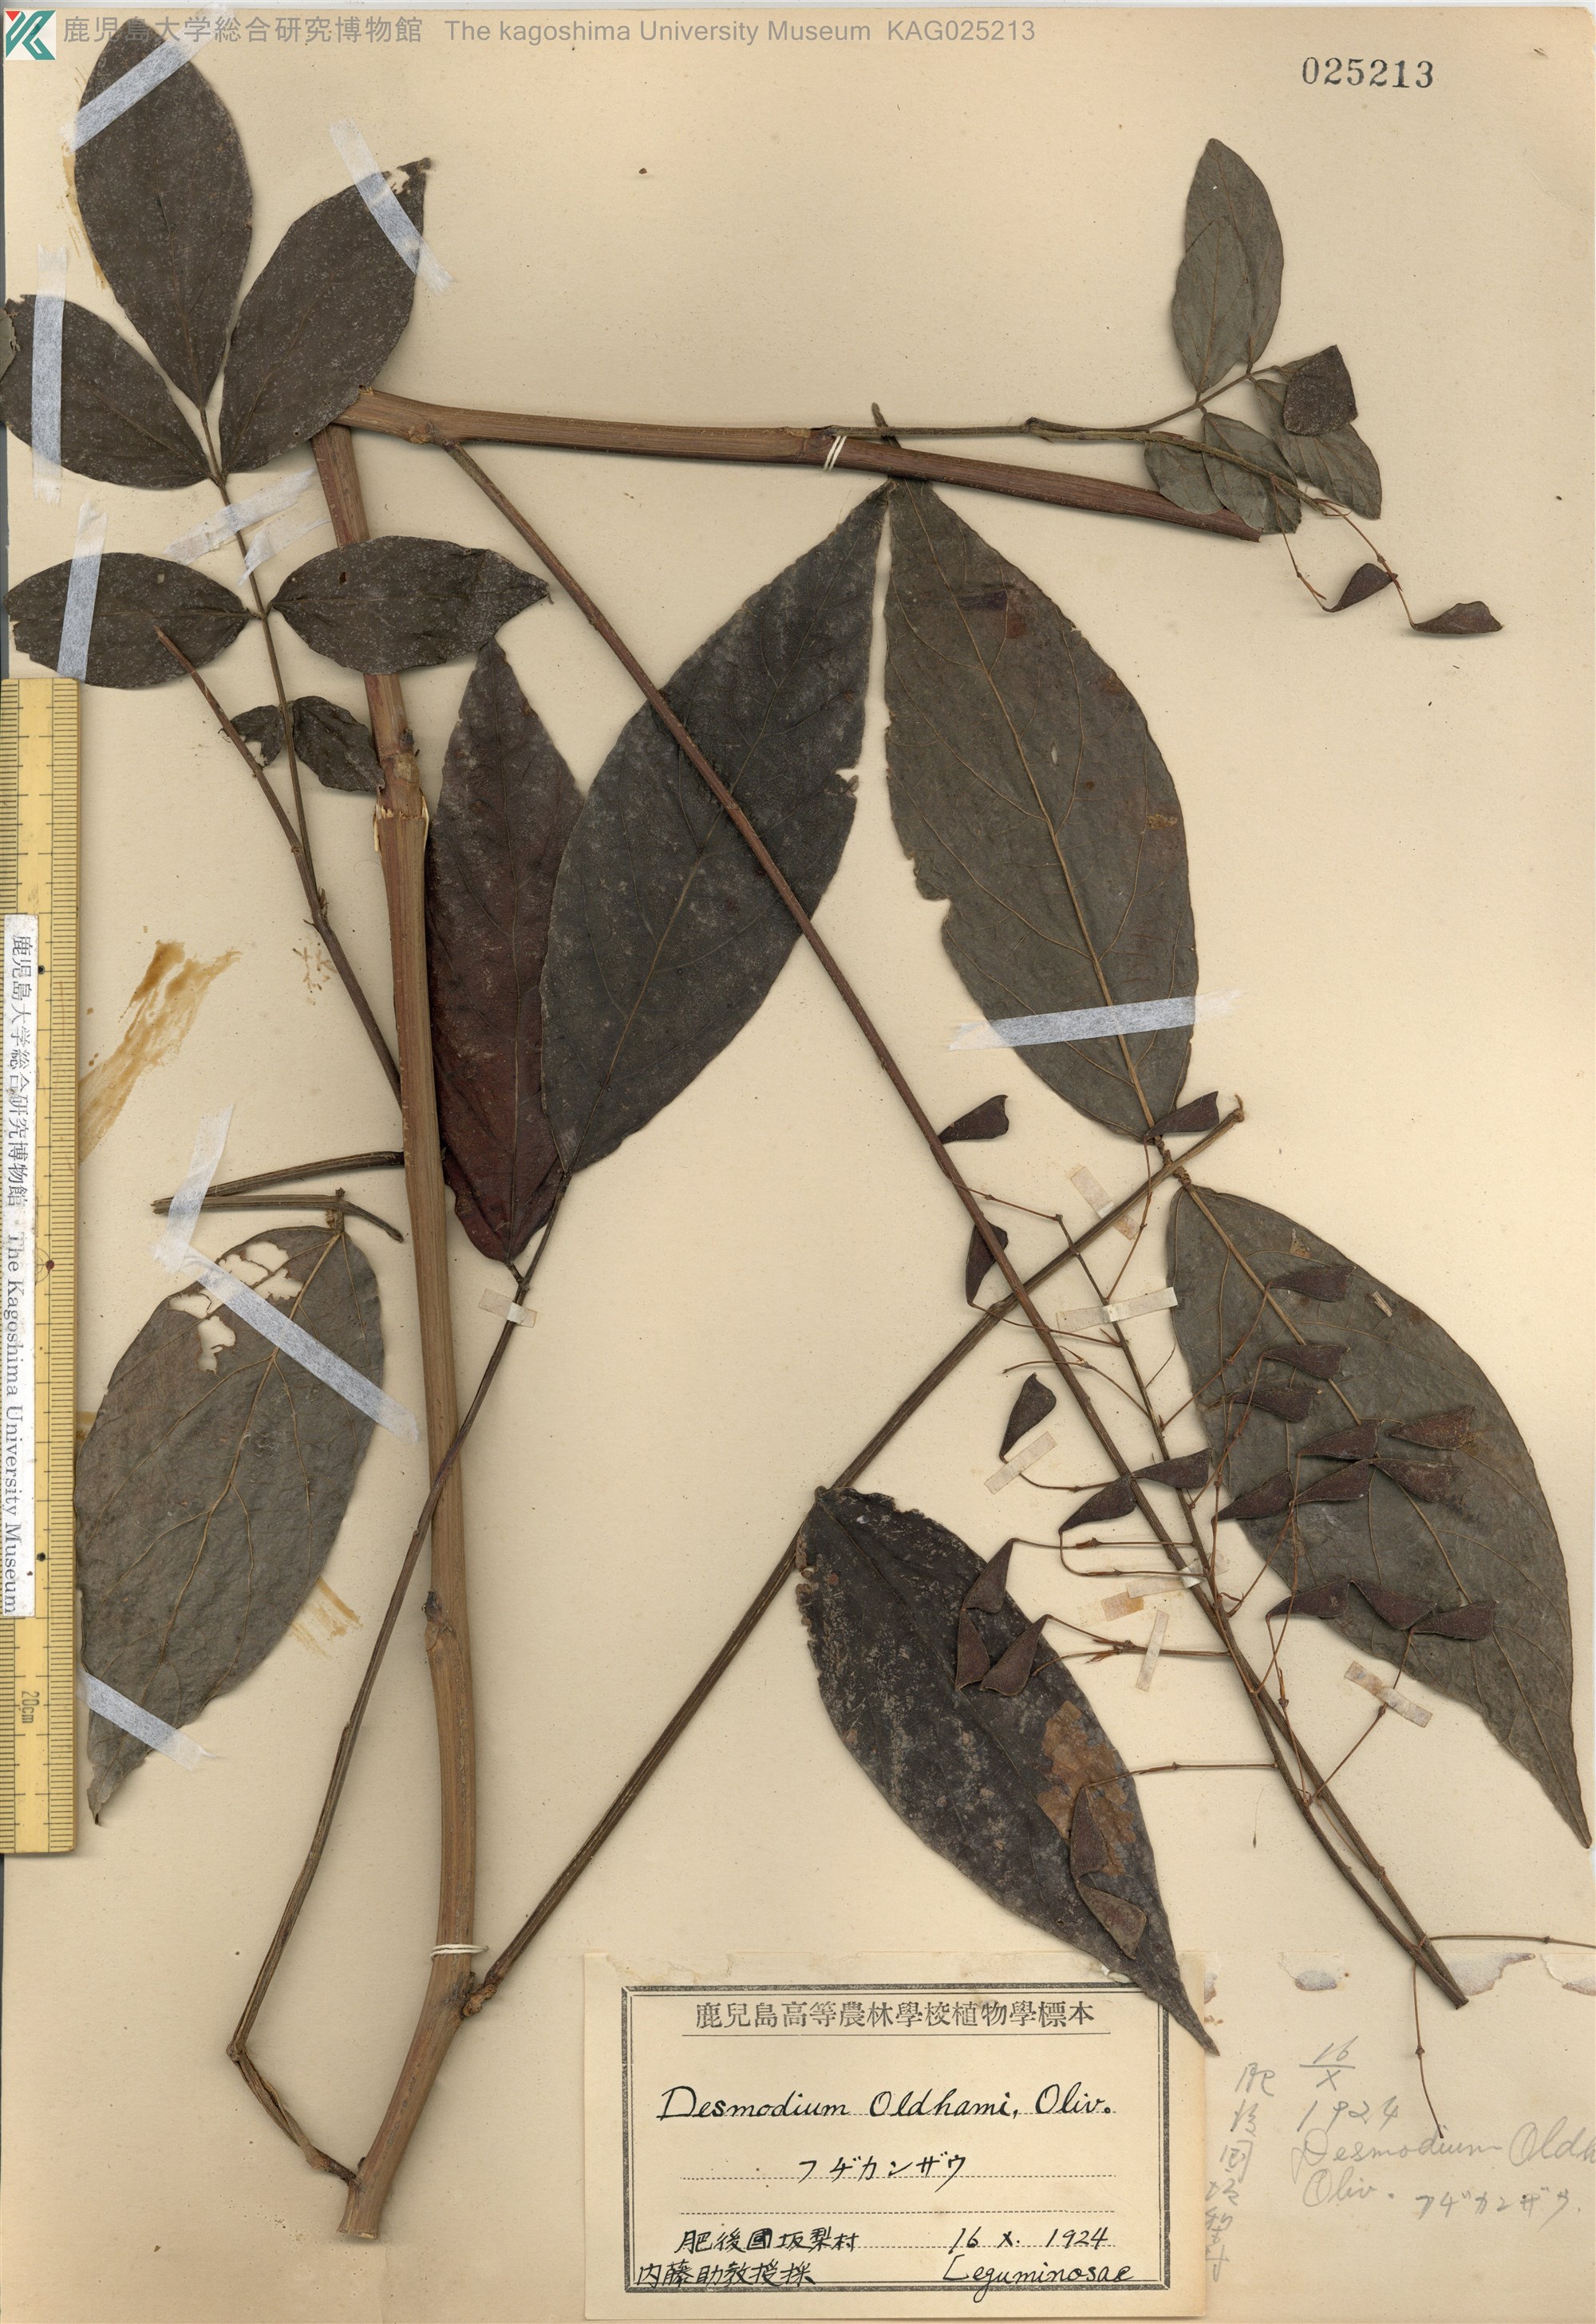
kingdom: Plantae
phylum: Tracheophyta
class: Magnoliopsida
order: Fabales
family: Fabaceae
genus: Hylodesmum
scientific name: Hylodesmum oldhamii
